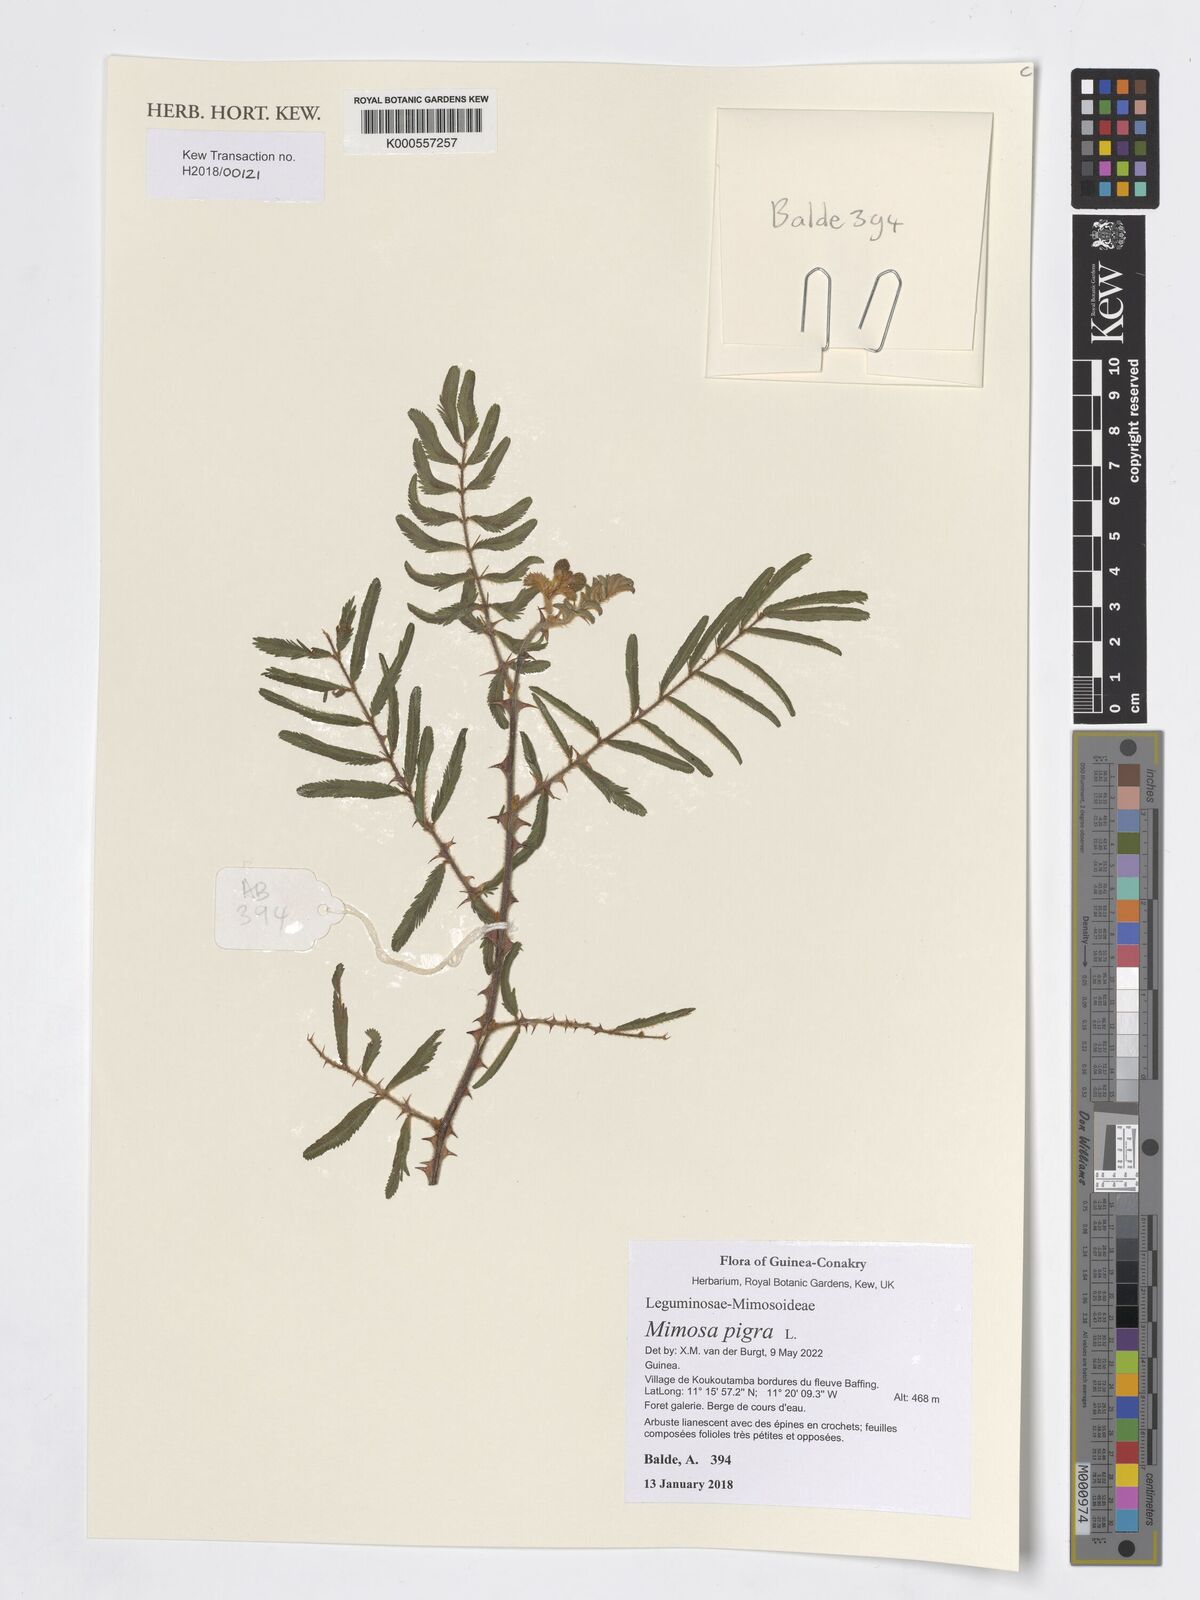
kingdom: Plantae
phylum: Tracheophyta
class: Magnoliopsida
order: Fabales
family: Fabaceae
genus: Mimosa
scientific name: Mimosa pigra
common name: Black mimosa
